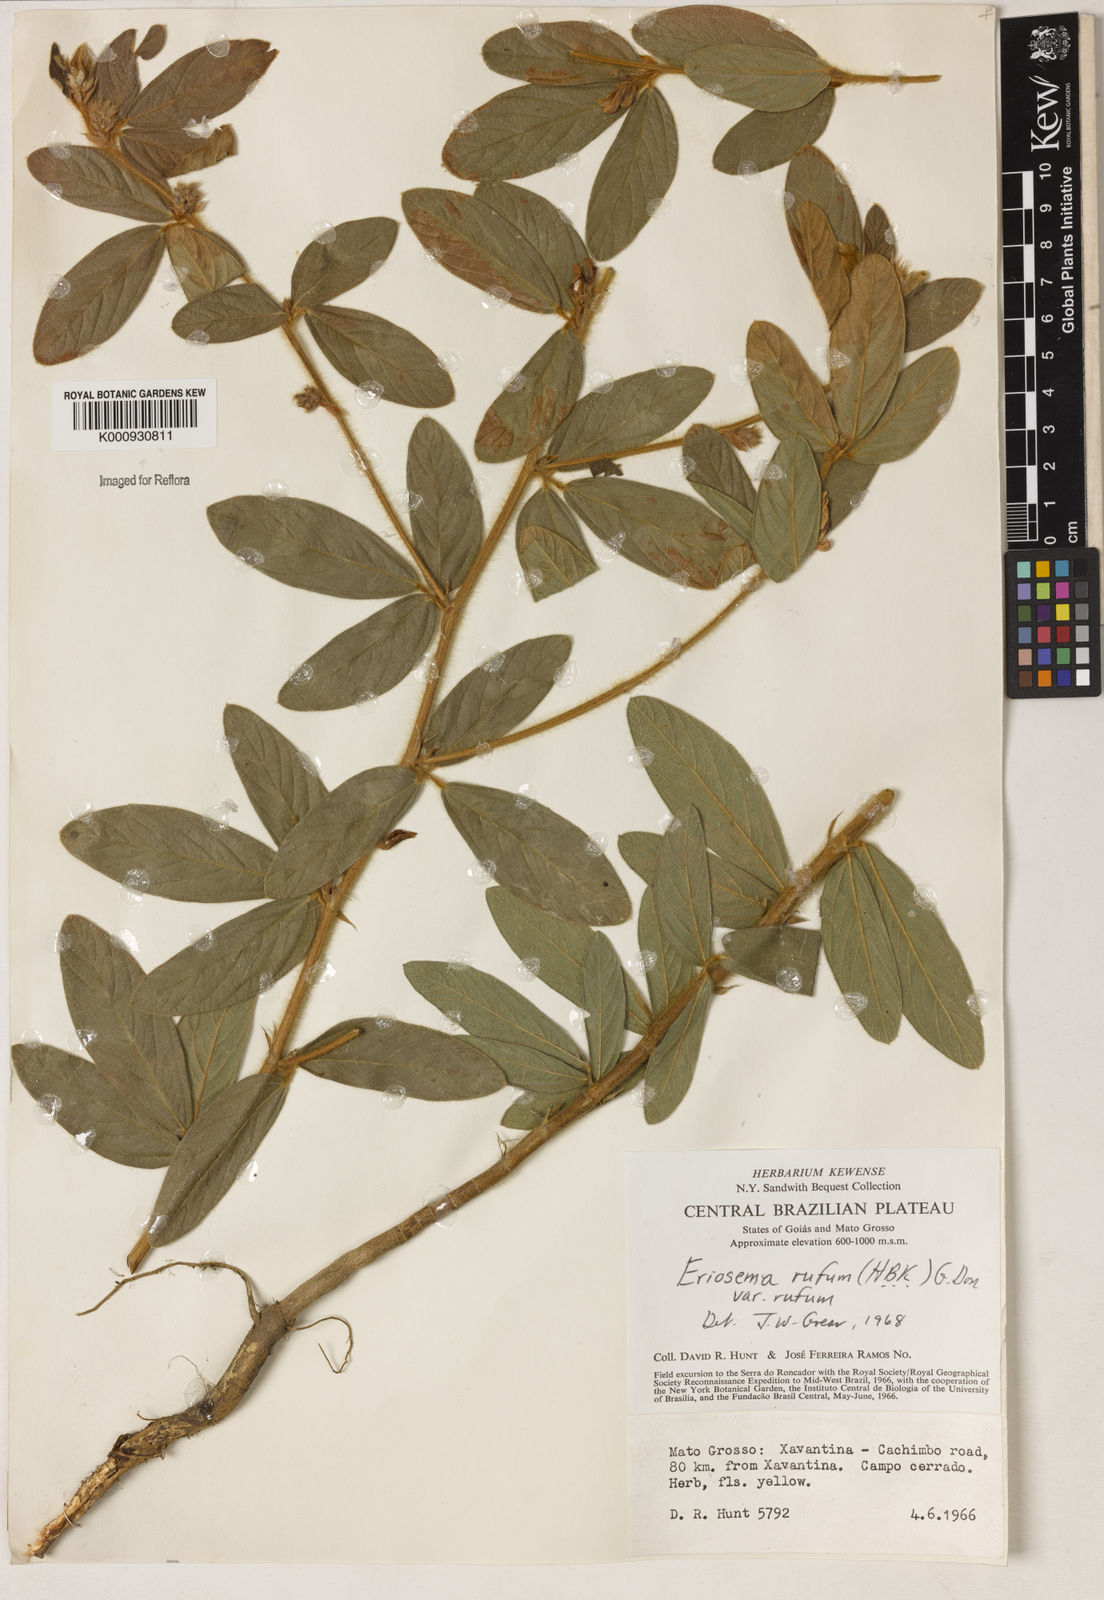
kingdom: Plantae
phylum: Tracheophyta
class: Magnoliopsida
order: Fabales
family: Fabaceae
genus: Eriosema
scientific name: Eriosema rufum
